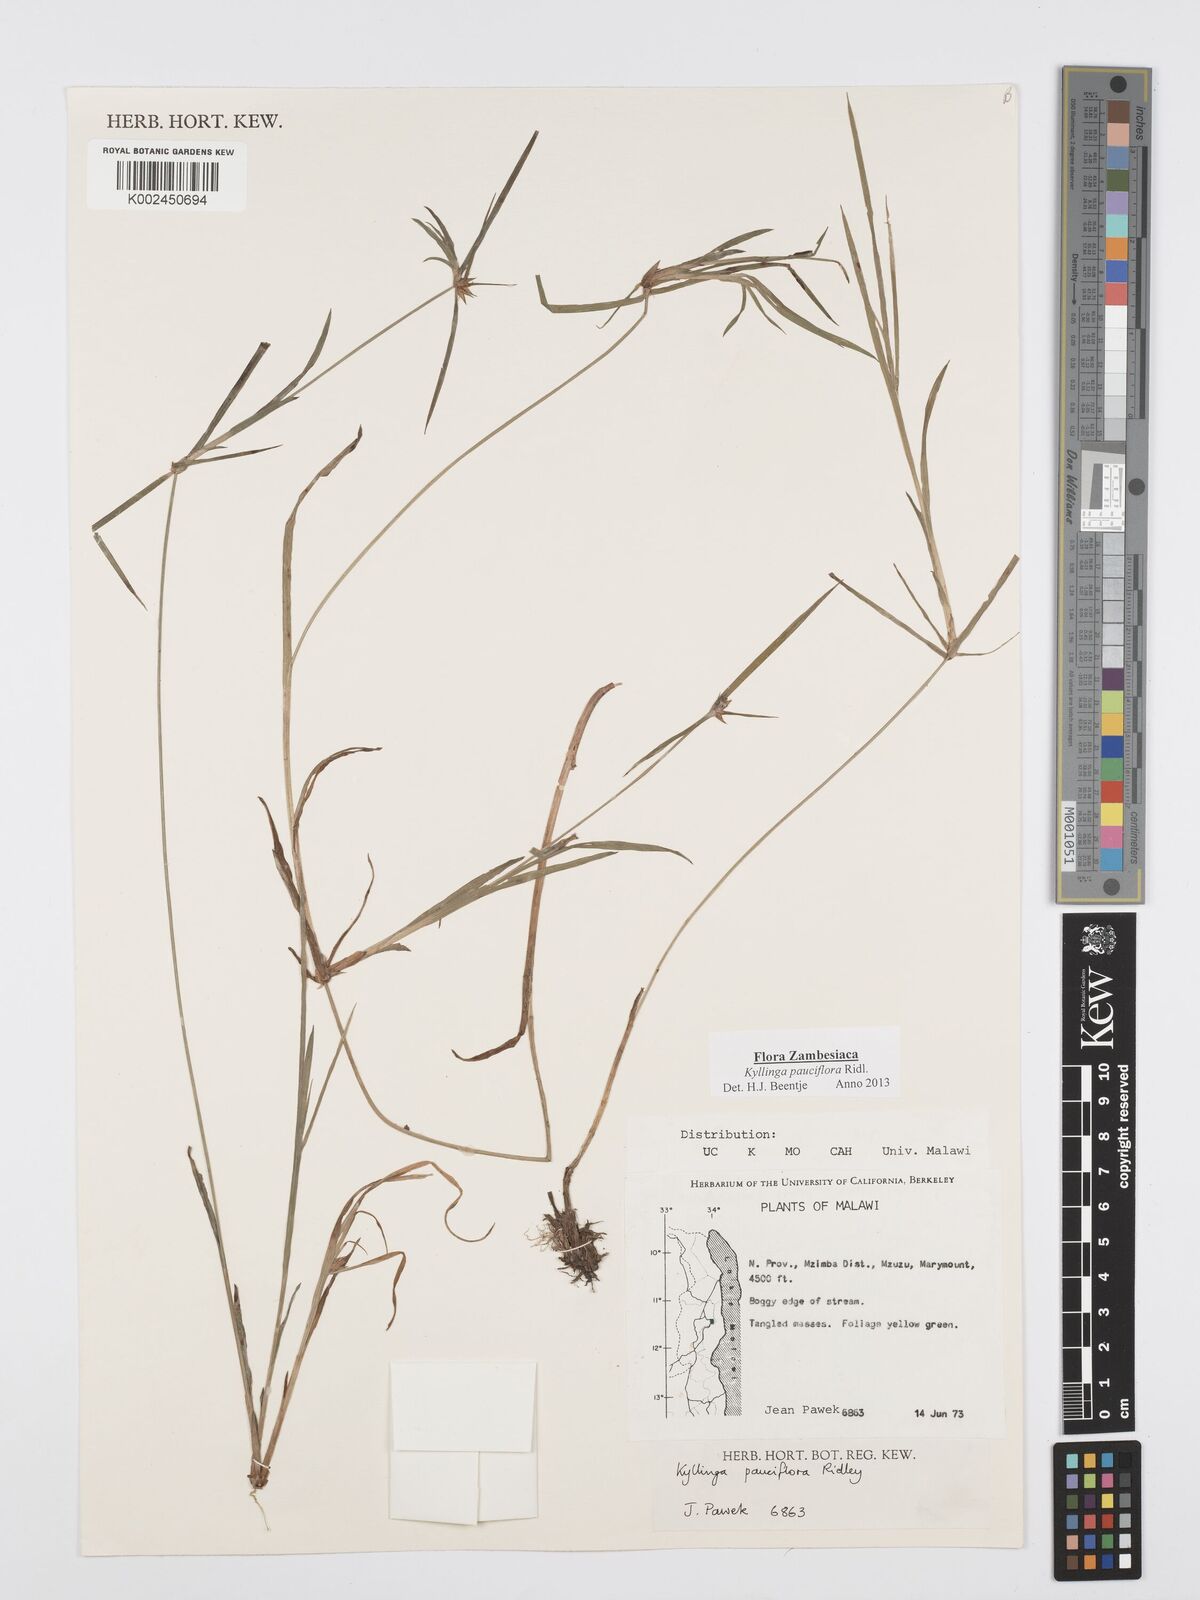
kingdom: Plantae
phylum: Tracheophyta
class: Liliopsida
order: Poales
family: Cyperaceae
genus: Cyperus
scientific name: Cyperus
